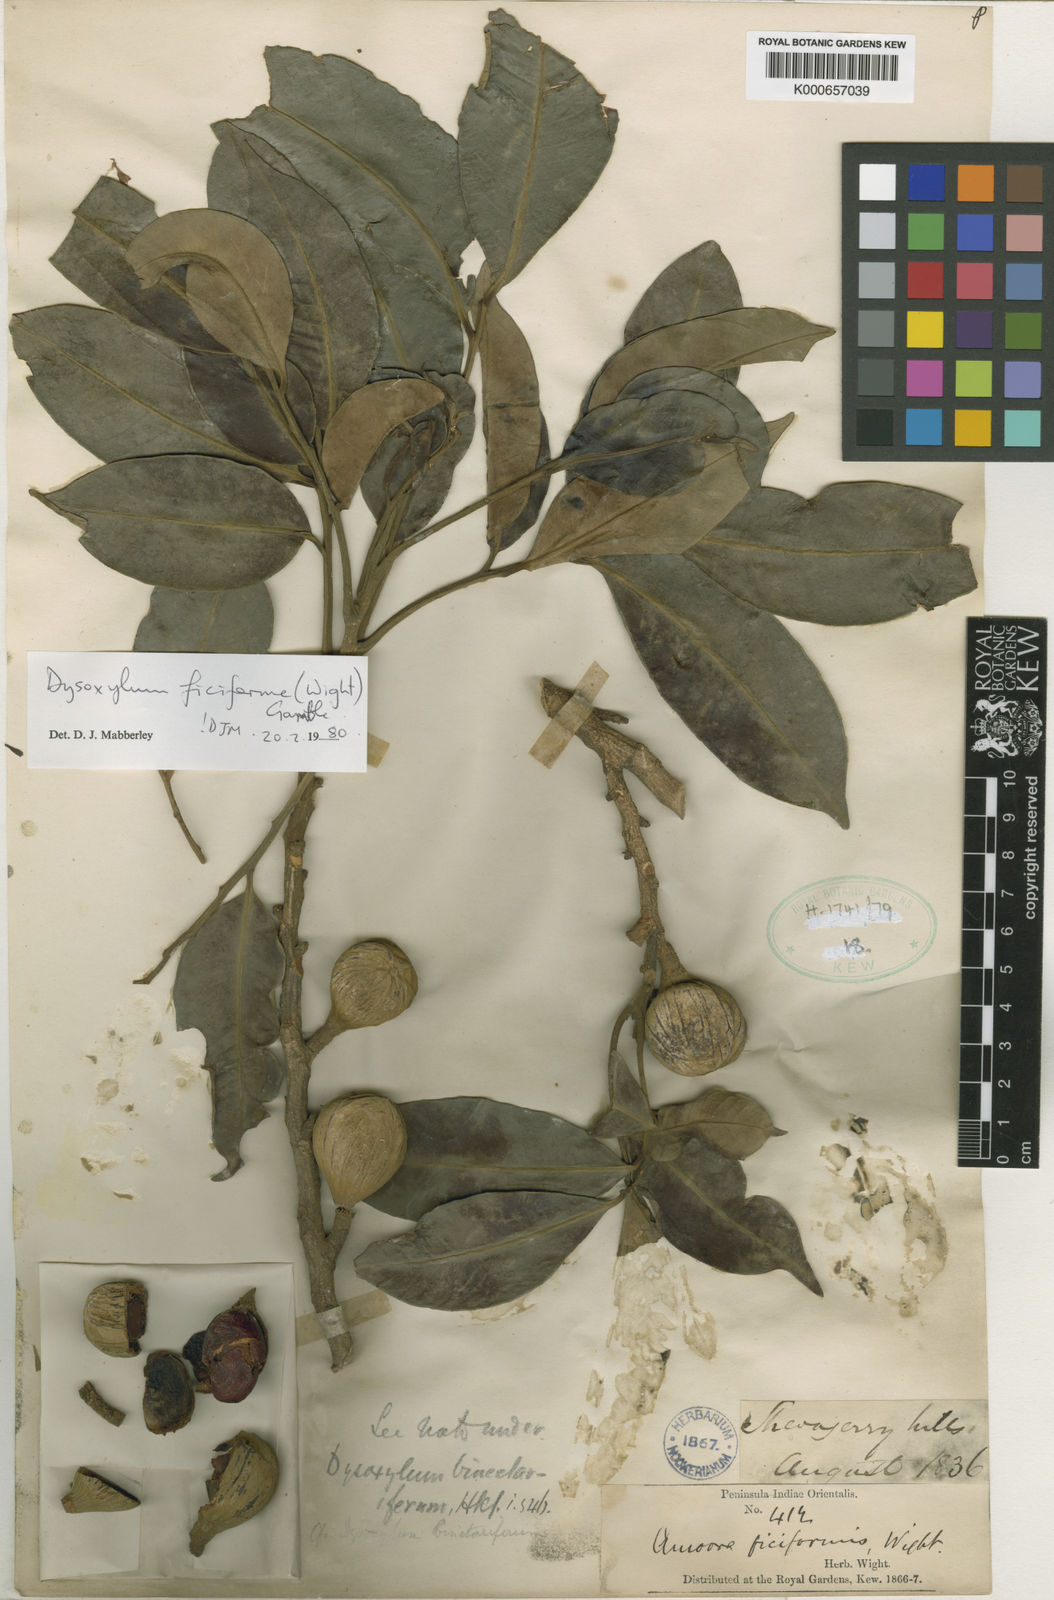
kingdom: Plantae
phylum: Tracheophyta
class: Magnoliopsida
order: Sapindales
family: Meliaceae
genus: Dysoxylum
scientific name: Dysoxylum ficiforme
